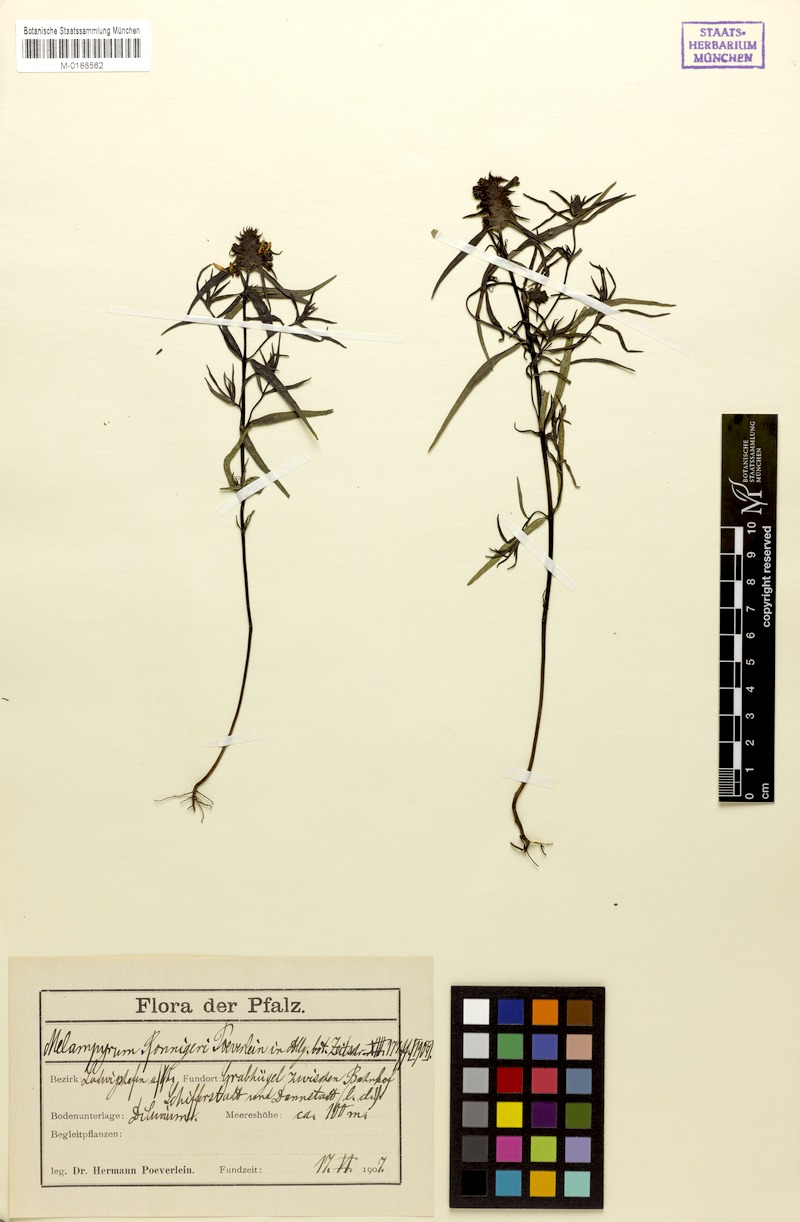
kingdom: Plantae
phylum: Tracheophyta
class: Magnoliopsida
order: Lamiales
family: Orobanchaceae
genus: Melampyrum
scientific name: Melampyrum cristatum
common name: Crested cow-wheat
